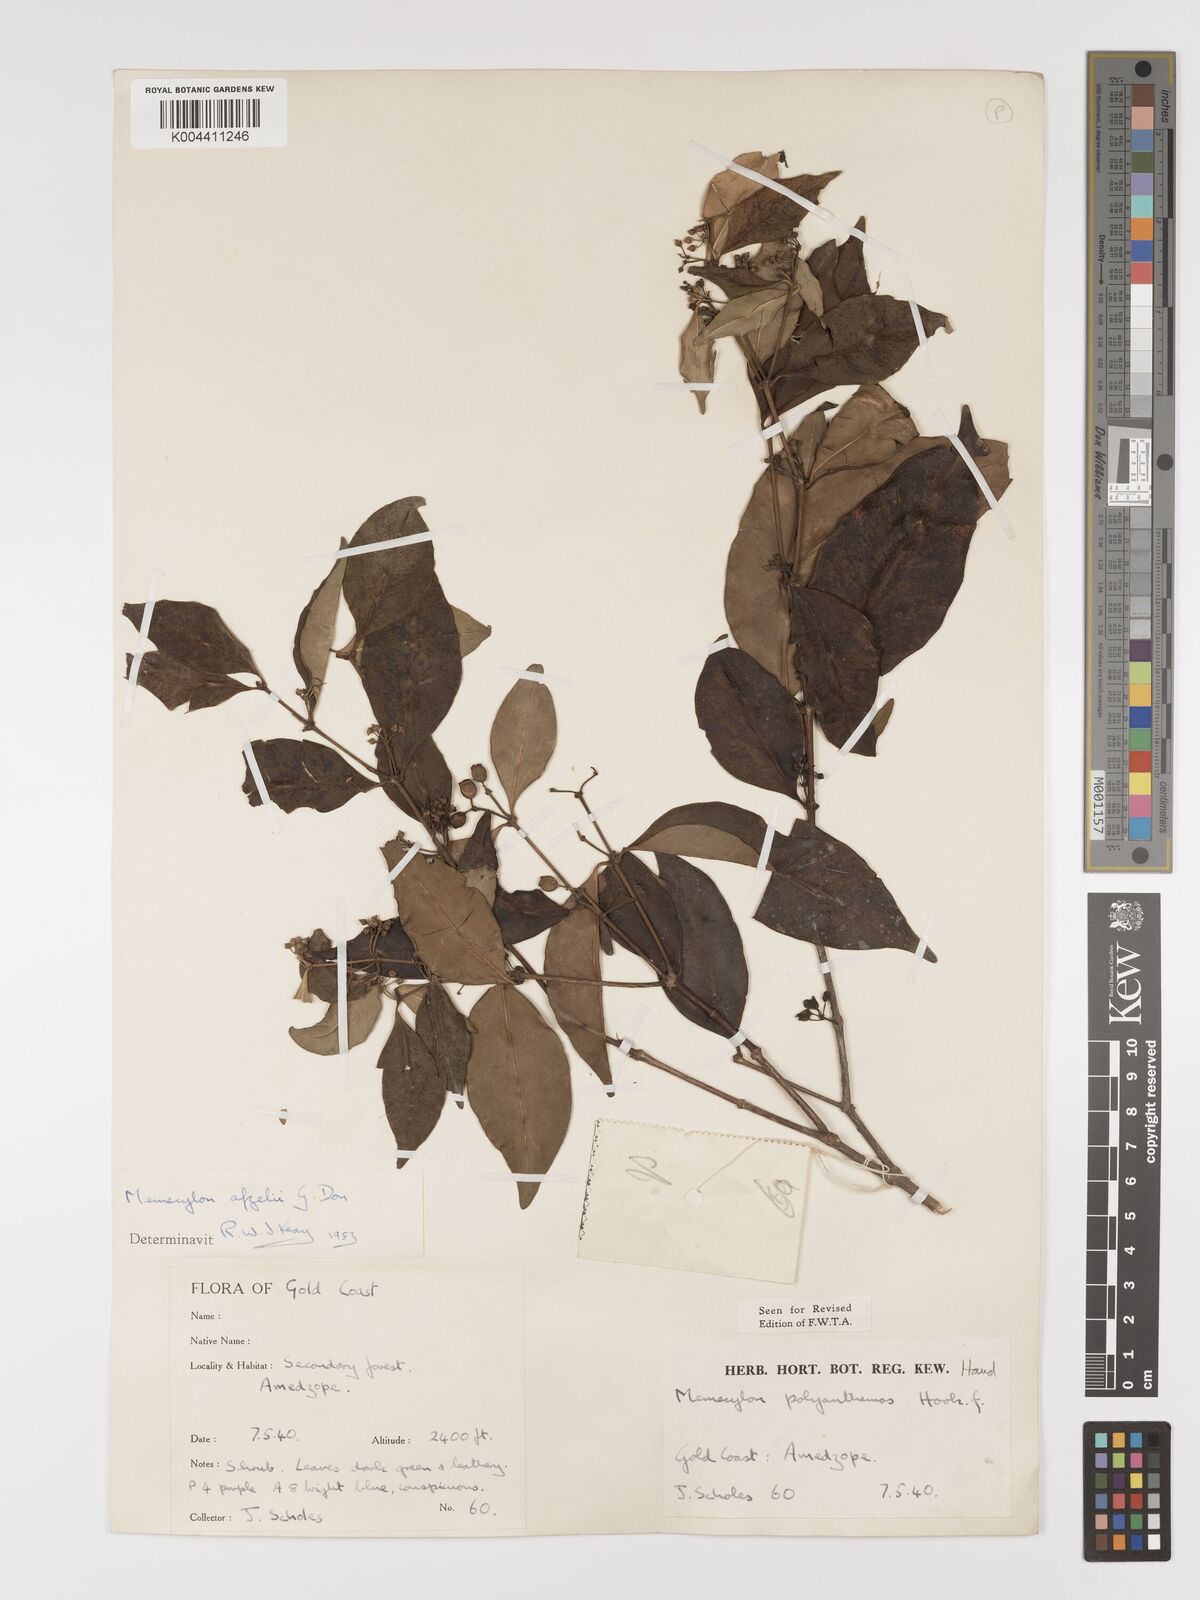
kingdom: Plantae
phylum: Tracheophyta
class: Magnoliopsida
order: Myrtales
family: Melastomataceae
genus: Memecylon
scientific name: Memecylon afzelii
